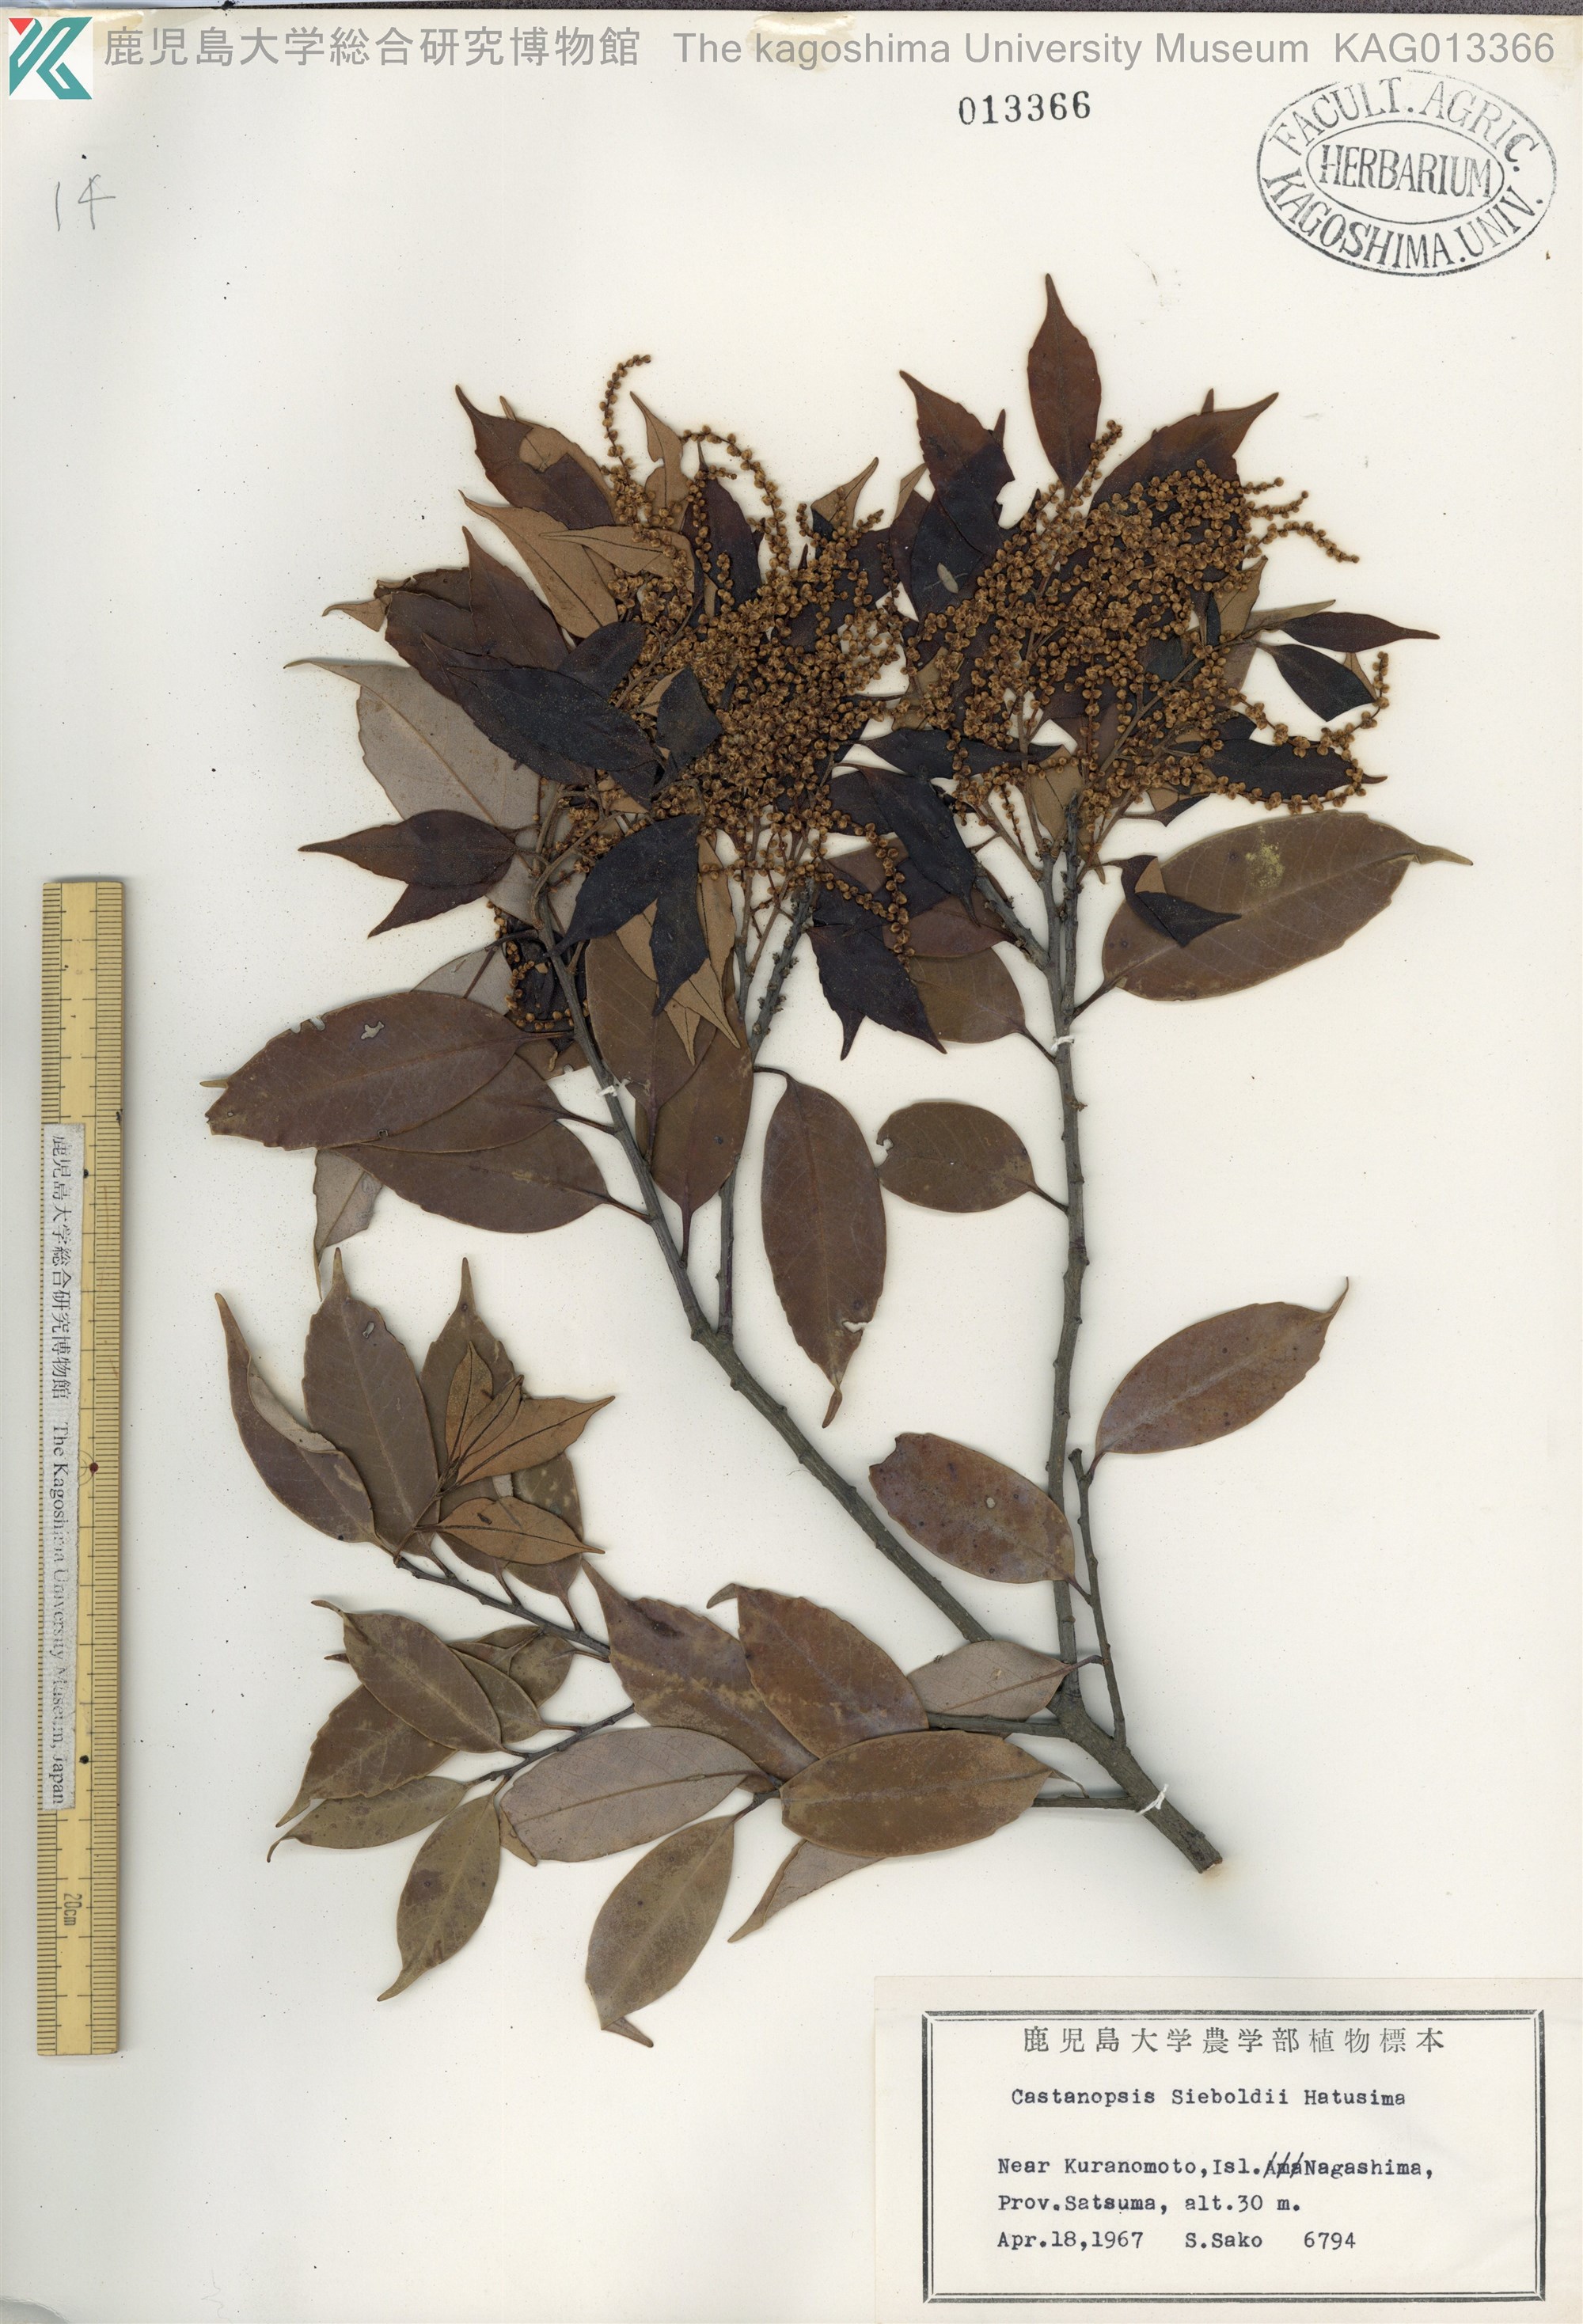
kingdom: Plantae
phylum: Tracheophyta
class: Magnoliopsida
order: Fagales
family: Fagaceae
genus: Castanopsis
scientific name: Castanopsis sieboldii
